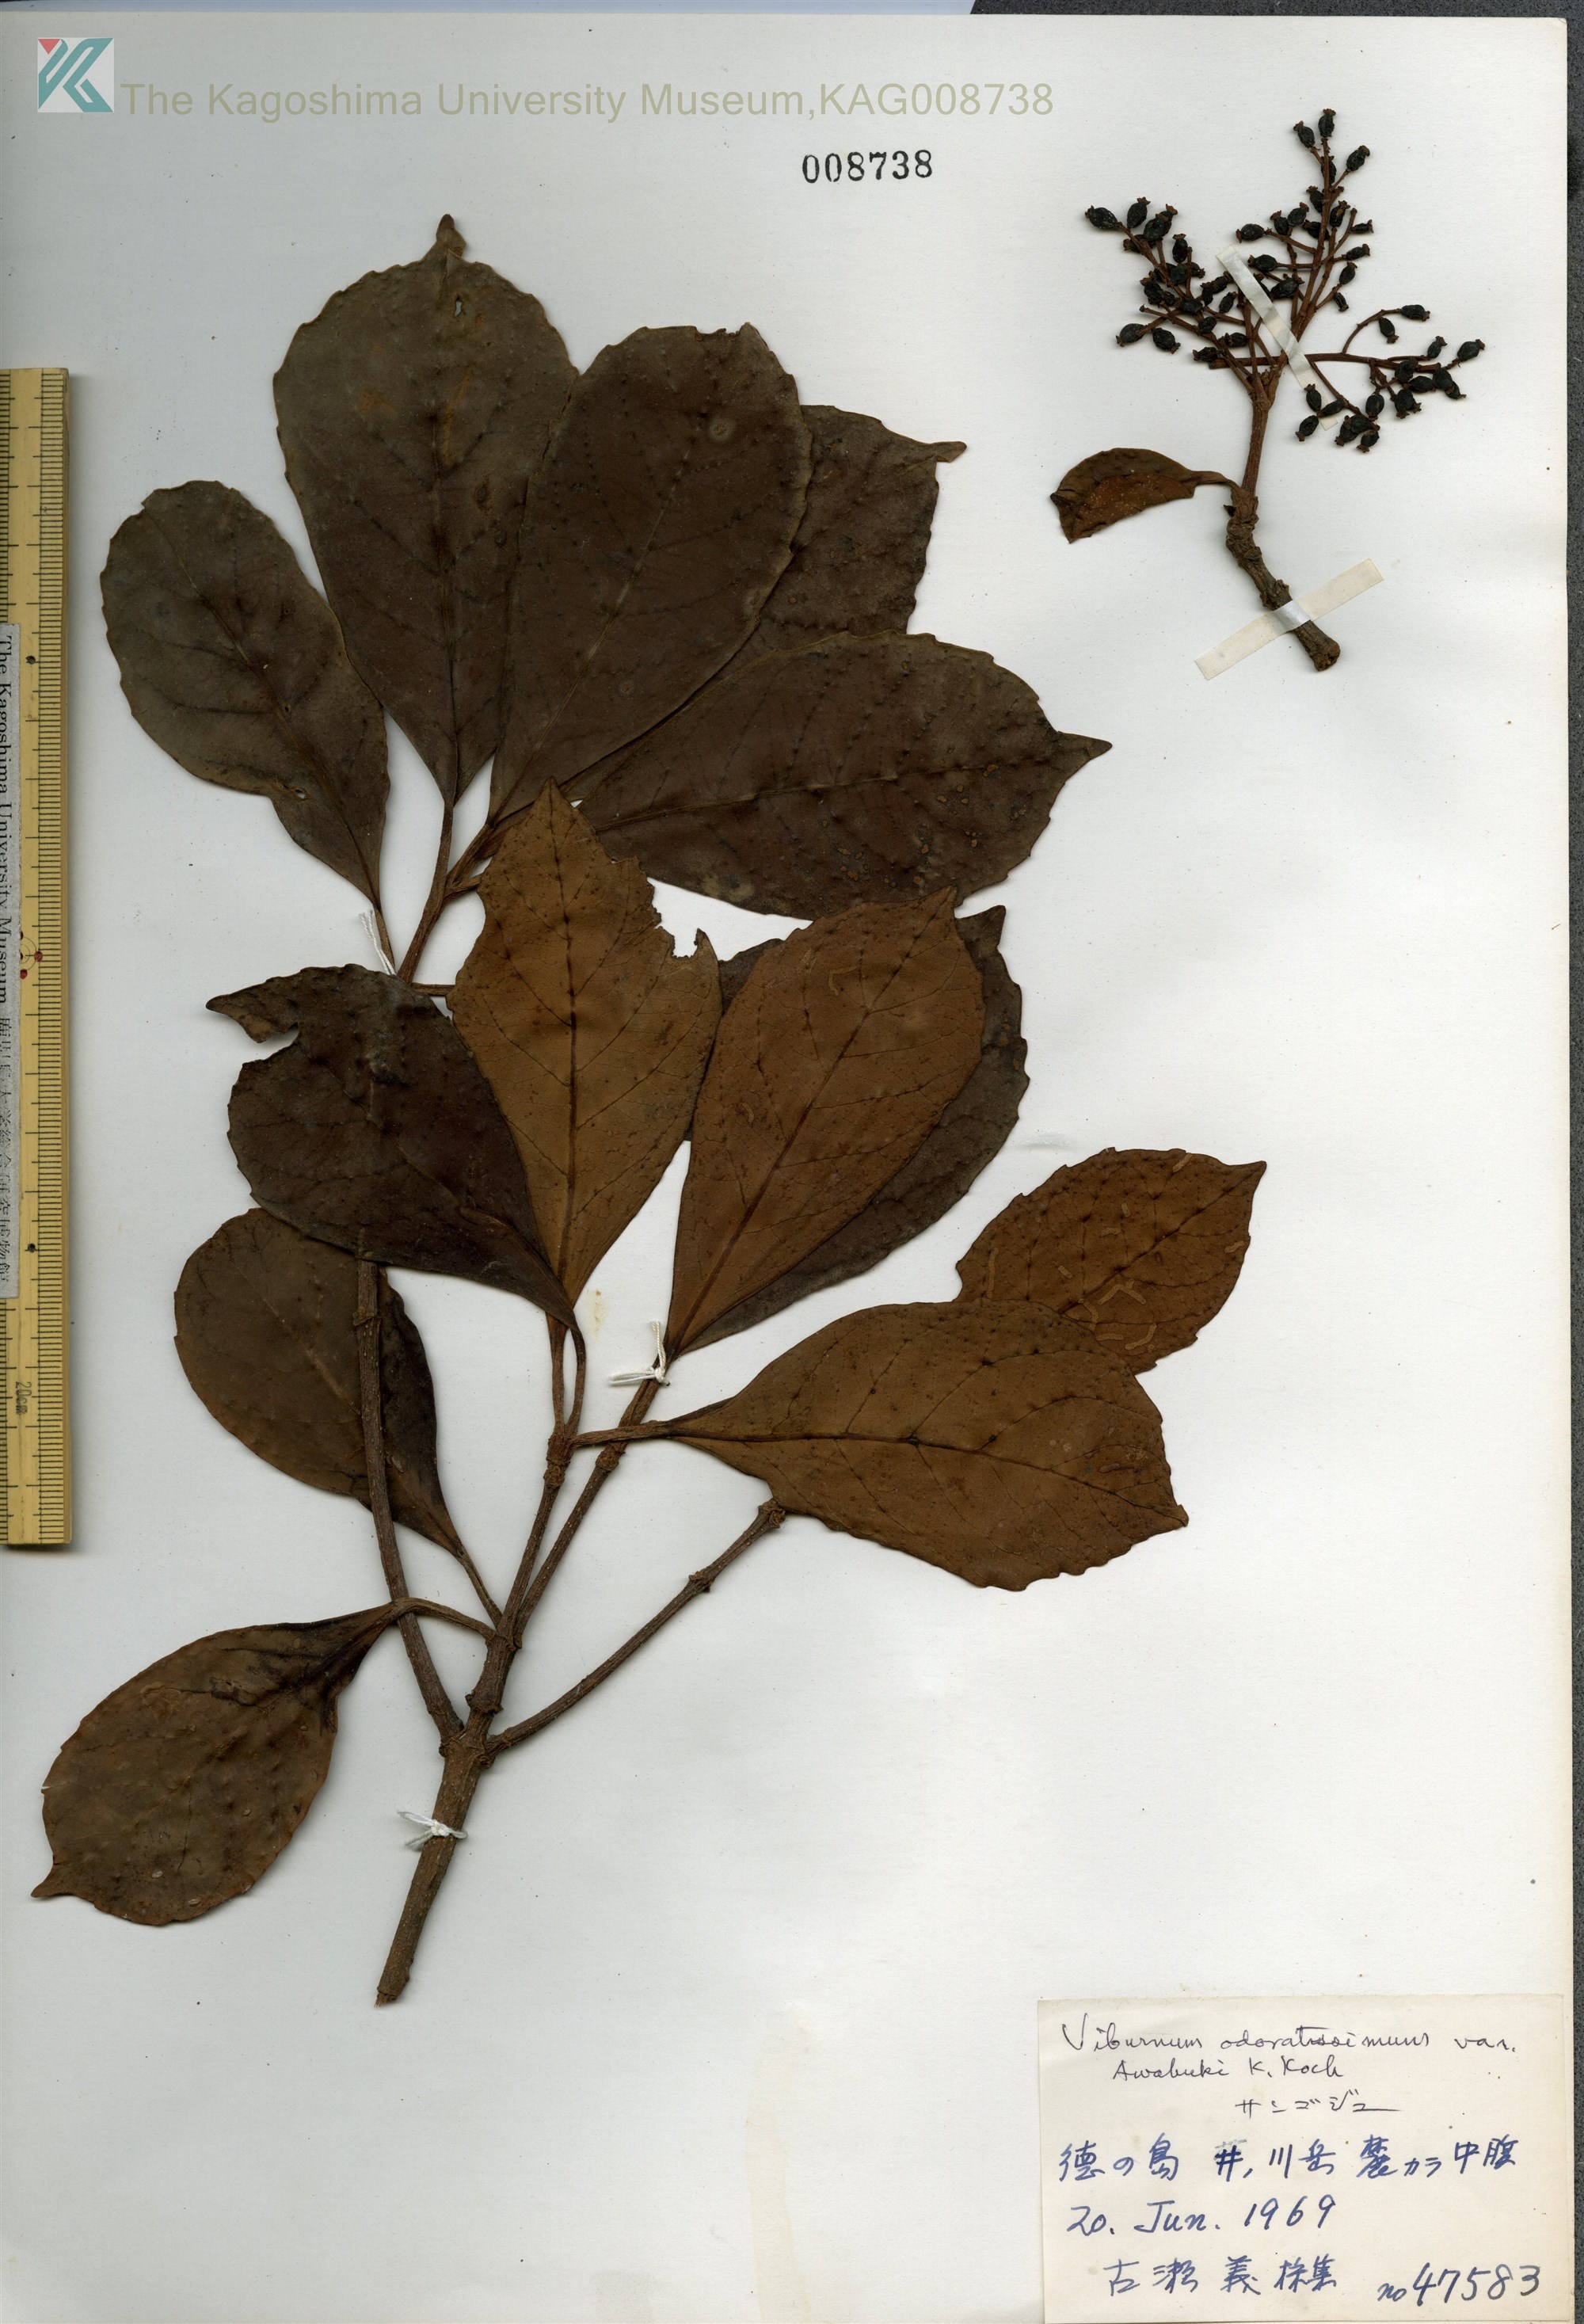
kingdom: Plantae
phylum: Tracheophyta
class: Magnoliopsida
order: Dipsacales
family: Viburnaceae
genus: Viburnum
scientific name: Viburnum odoratissimum
